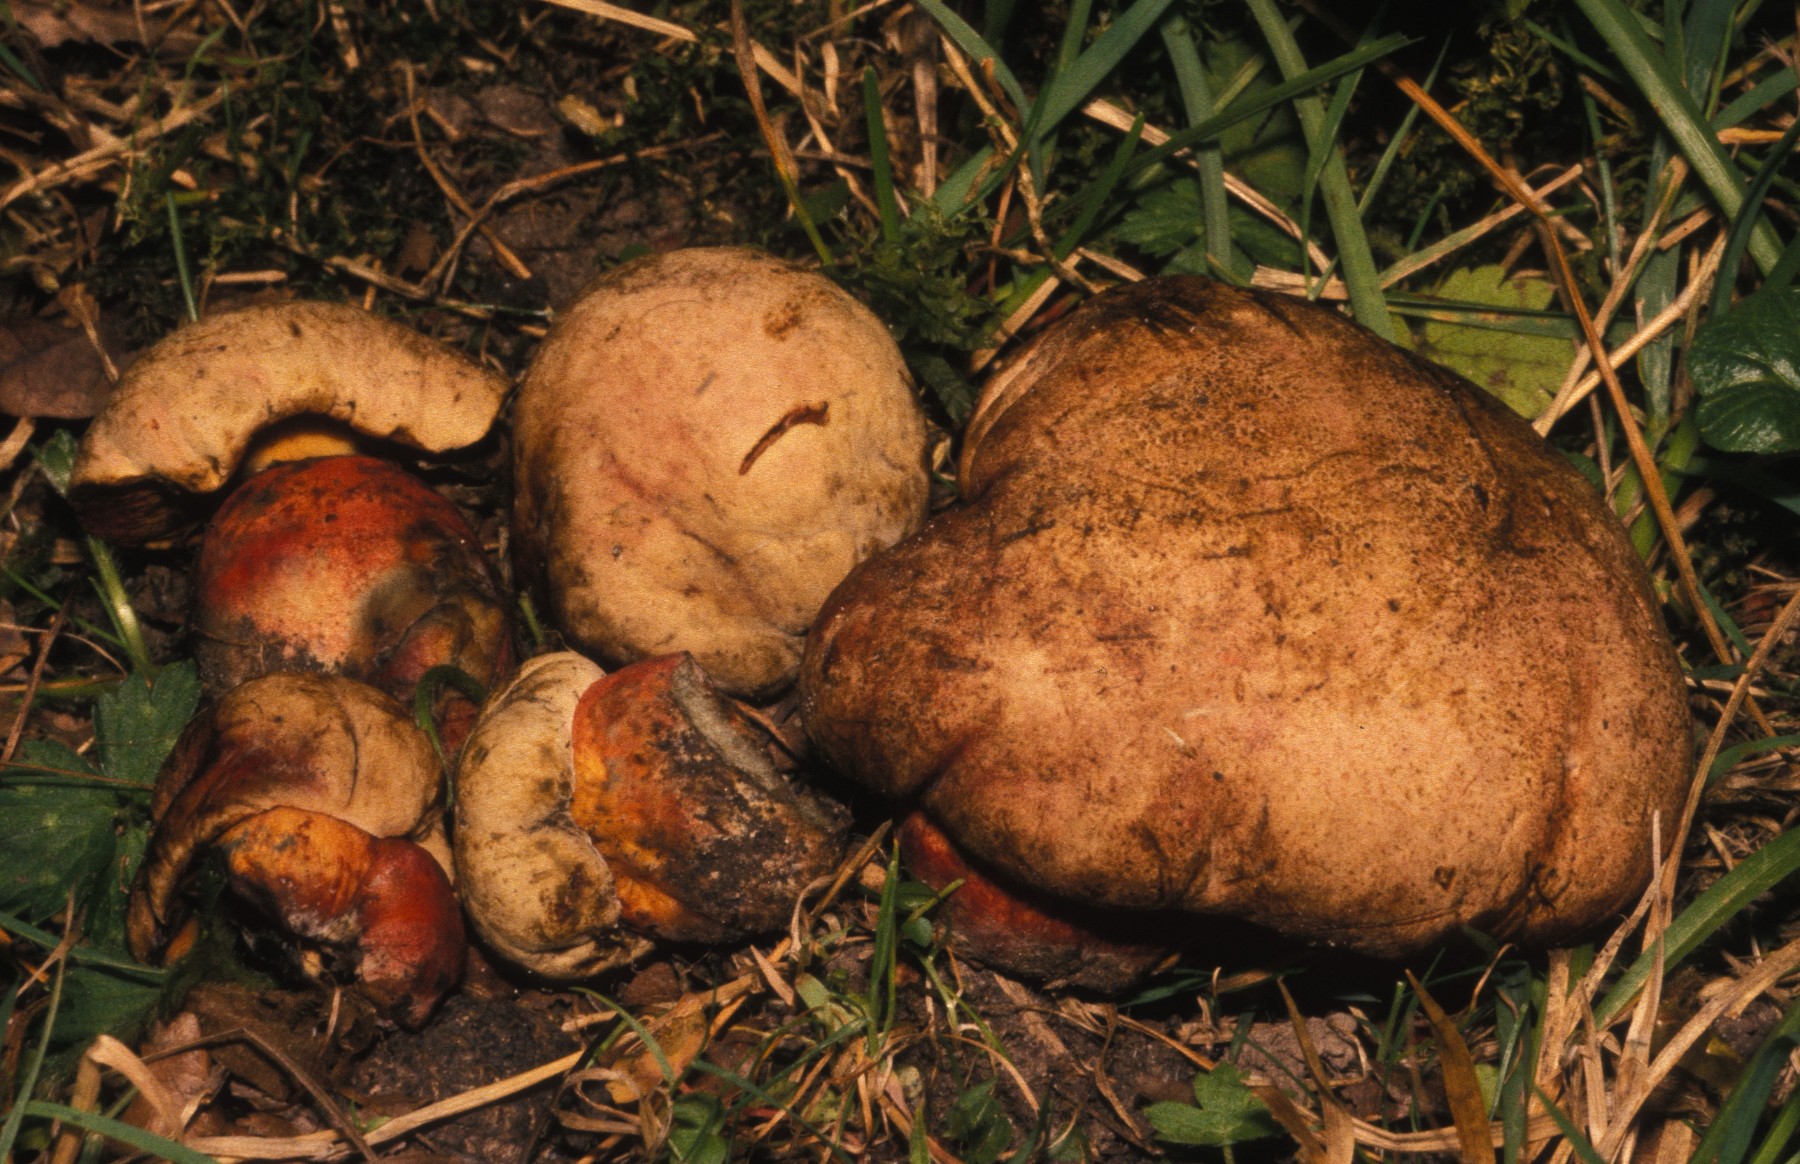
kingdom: Fungi
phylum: Basidiomycota
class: Agaricomycetes
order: Boletales
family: Boletaceae
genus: Rubroboletus
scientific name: Rubroboletus legaliae
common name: djævle-rørhat
